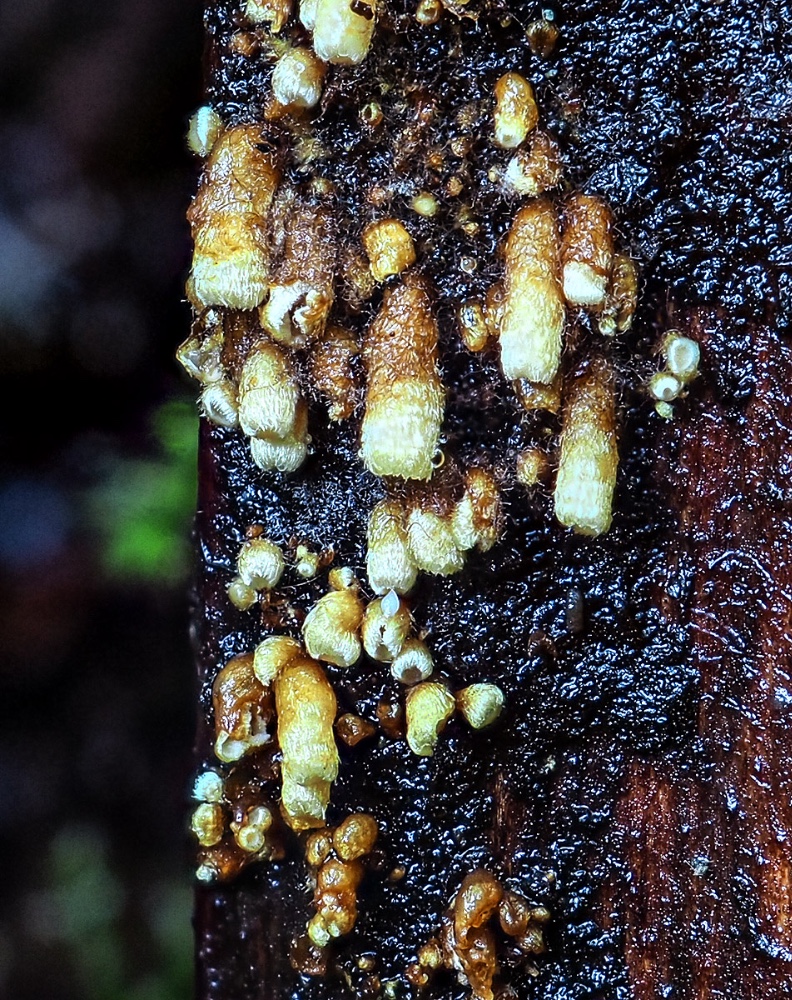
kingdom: Fungi
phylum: Basidiomycota
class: Agaricomycetes
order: Agaricales
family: Niaceae
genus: Woldmaria
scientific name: Woldmaria filicina
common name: bregnerør
